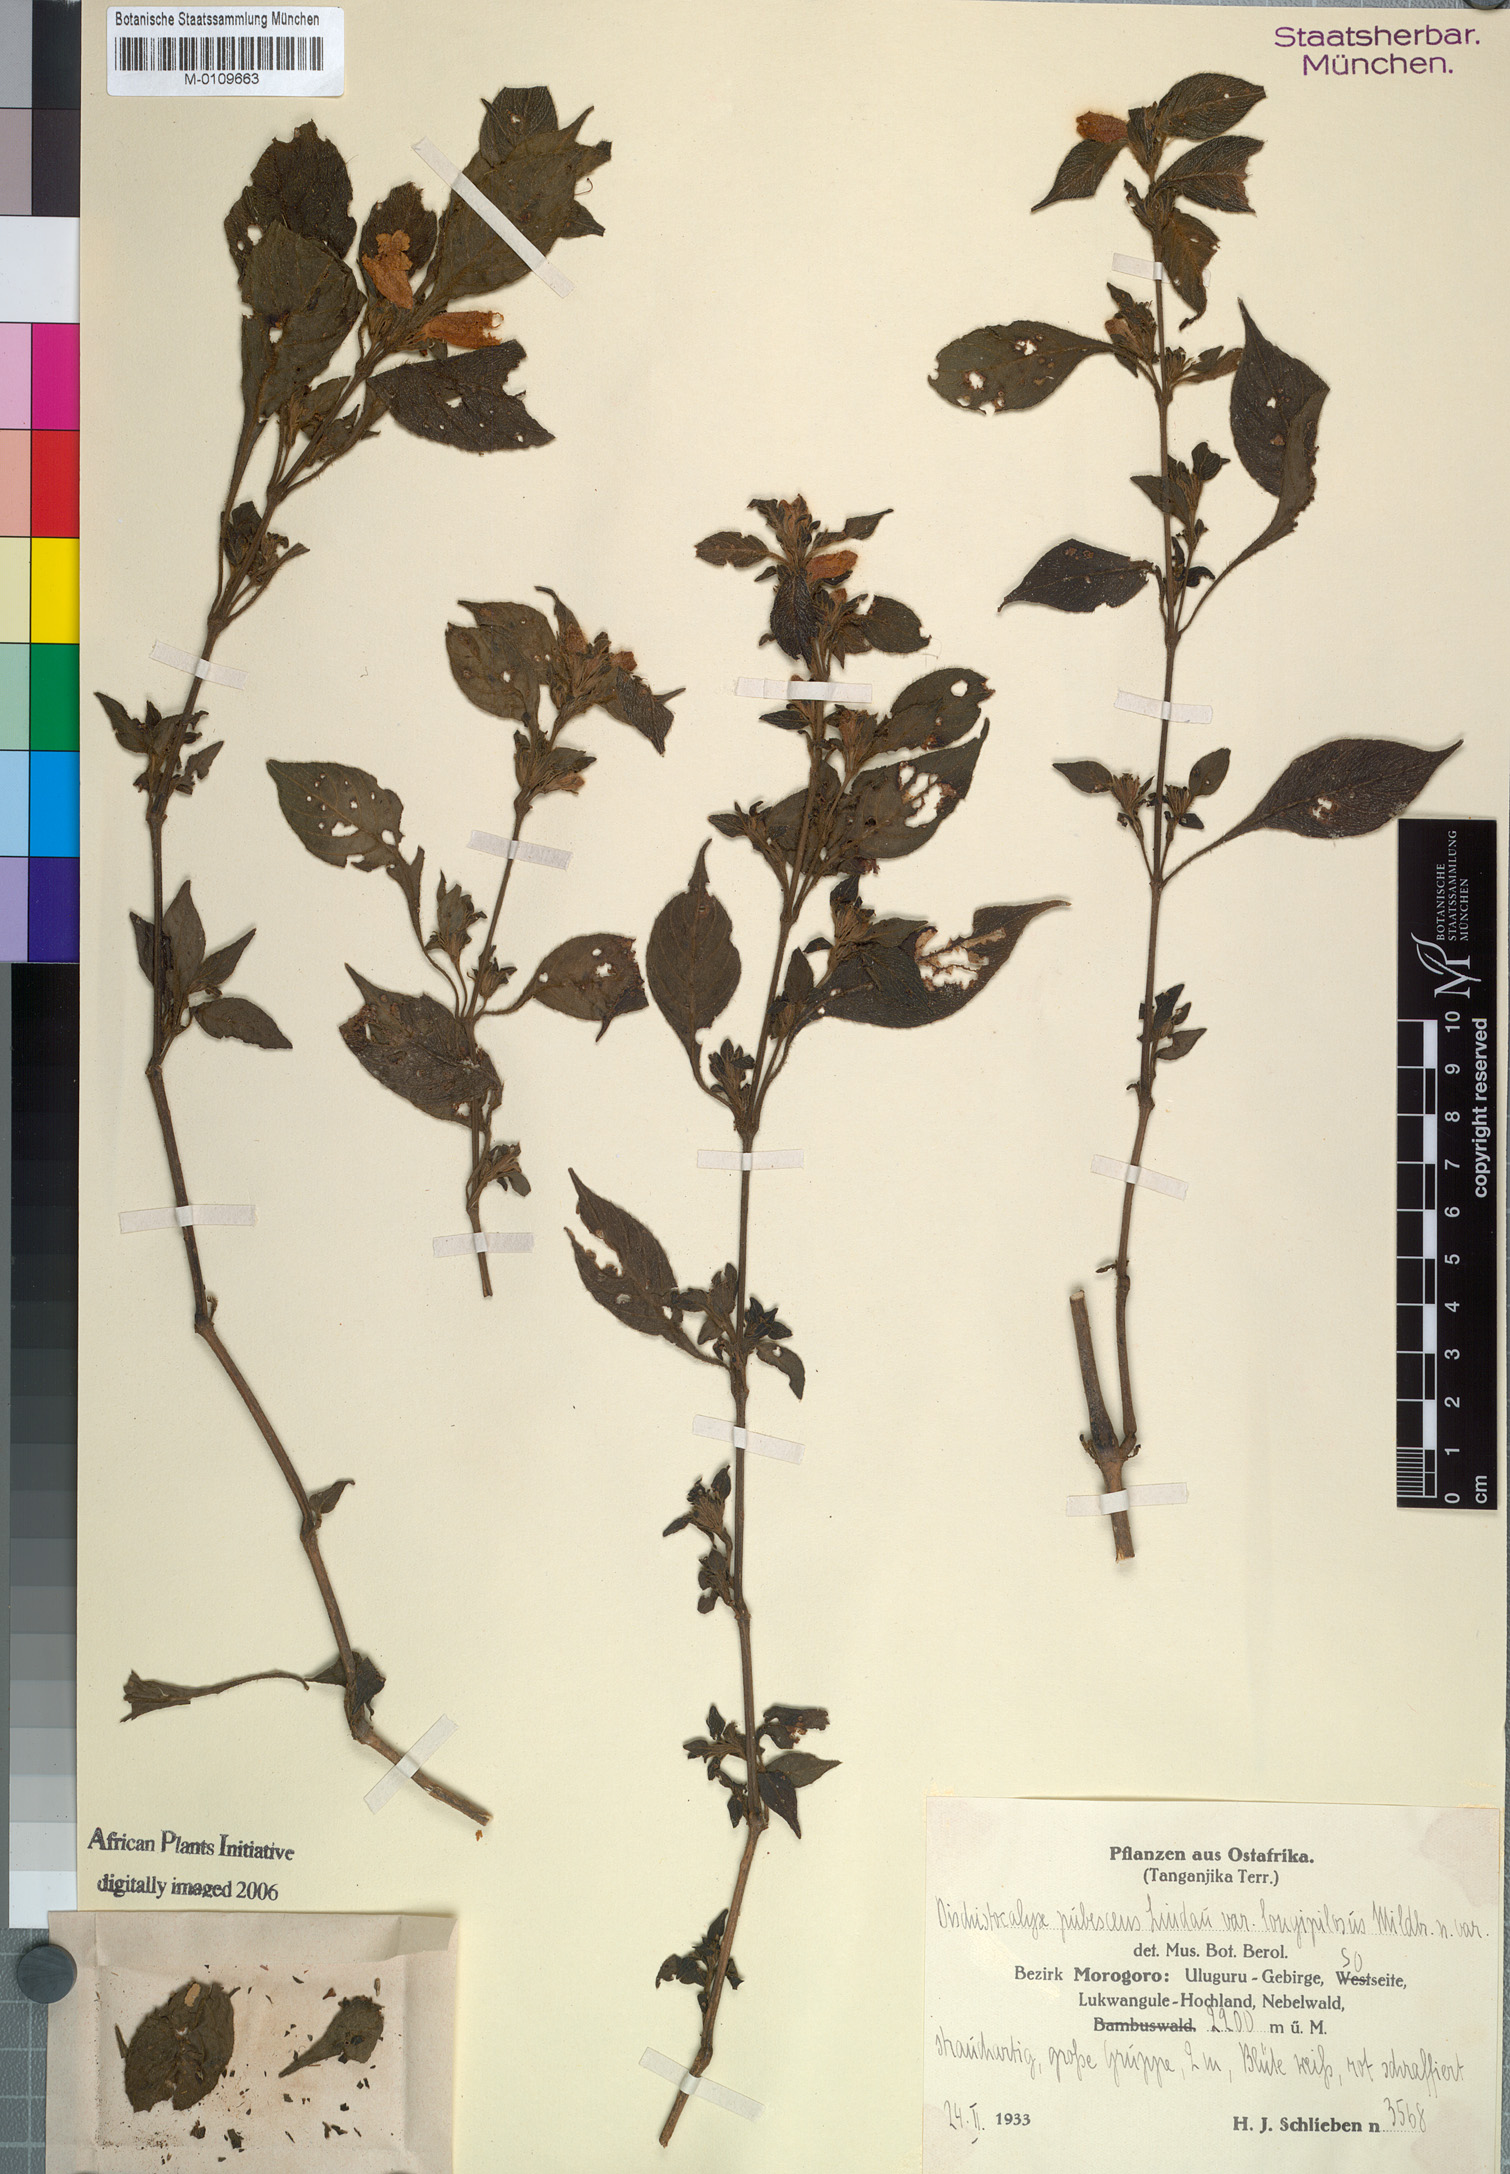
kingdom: Plantae
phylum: Tracheophyta
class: Magnoliopsida
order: Lamiales
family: Acanthaceae
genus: Acanthopale
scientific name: Acanthopale pubescens
